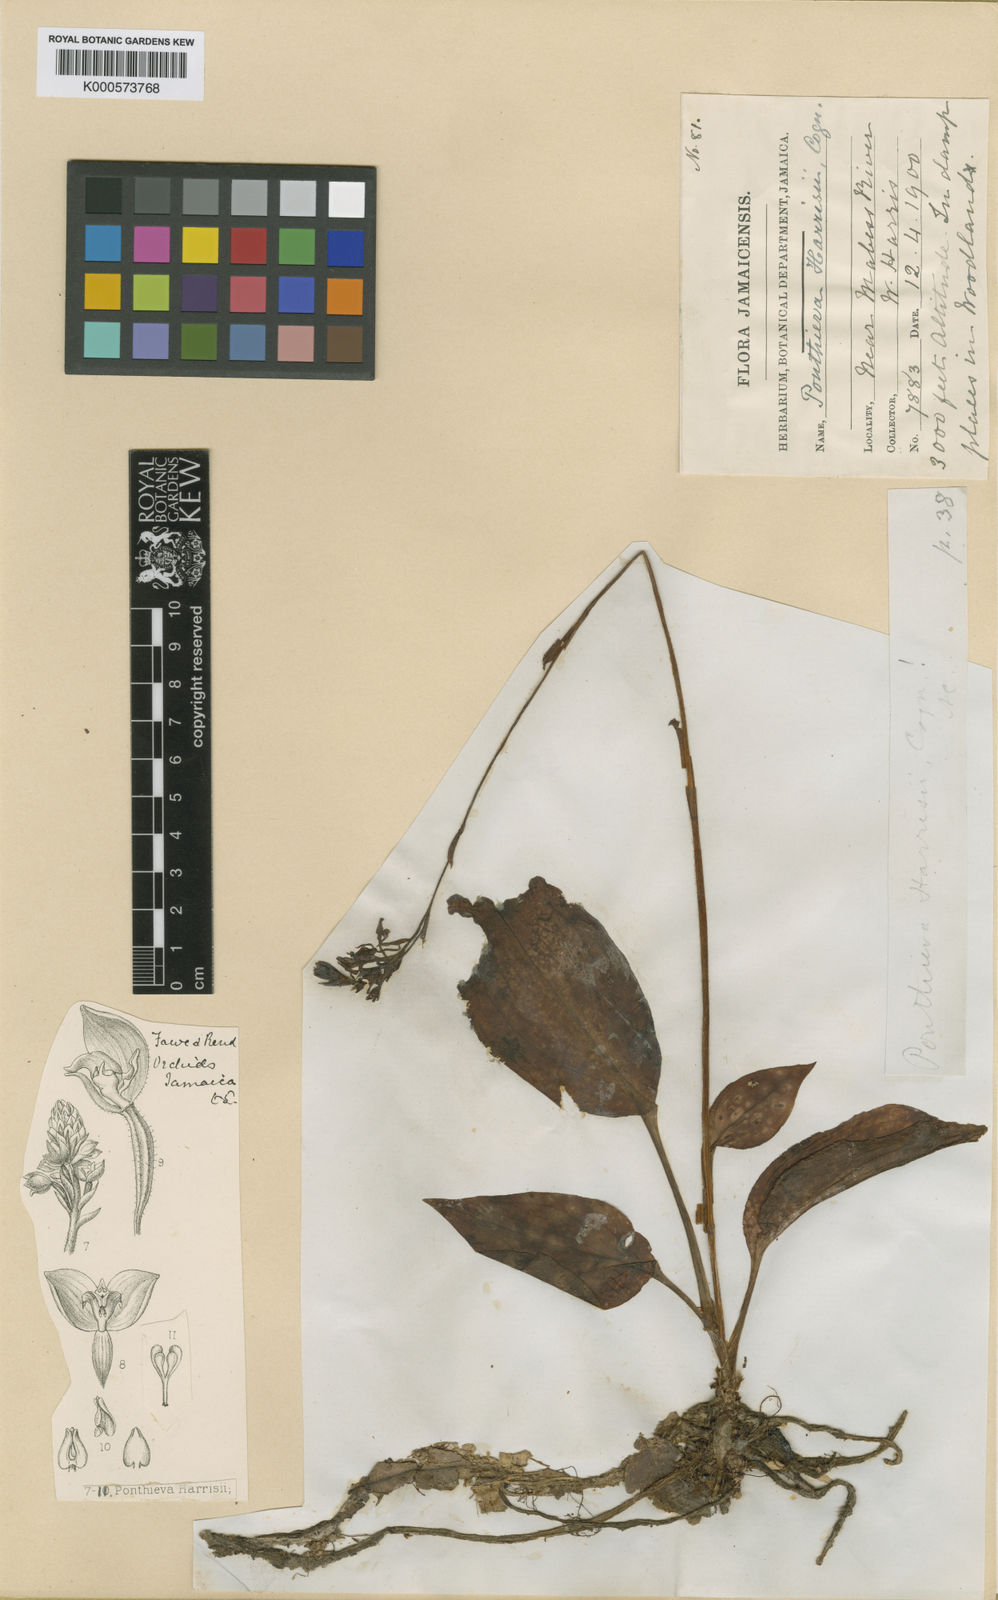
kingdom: Plantae
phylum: Tracheophyta
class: Liliopsida
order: Asparagales
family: Orchidaceae
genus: Ponthieva
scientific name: Ponthieva diptera
